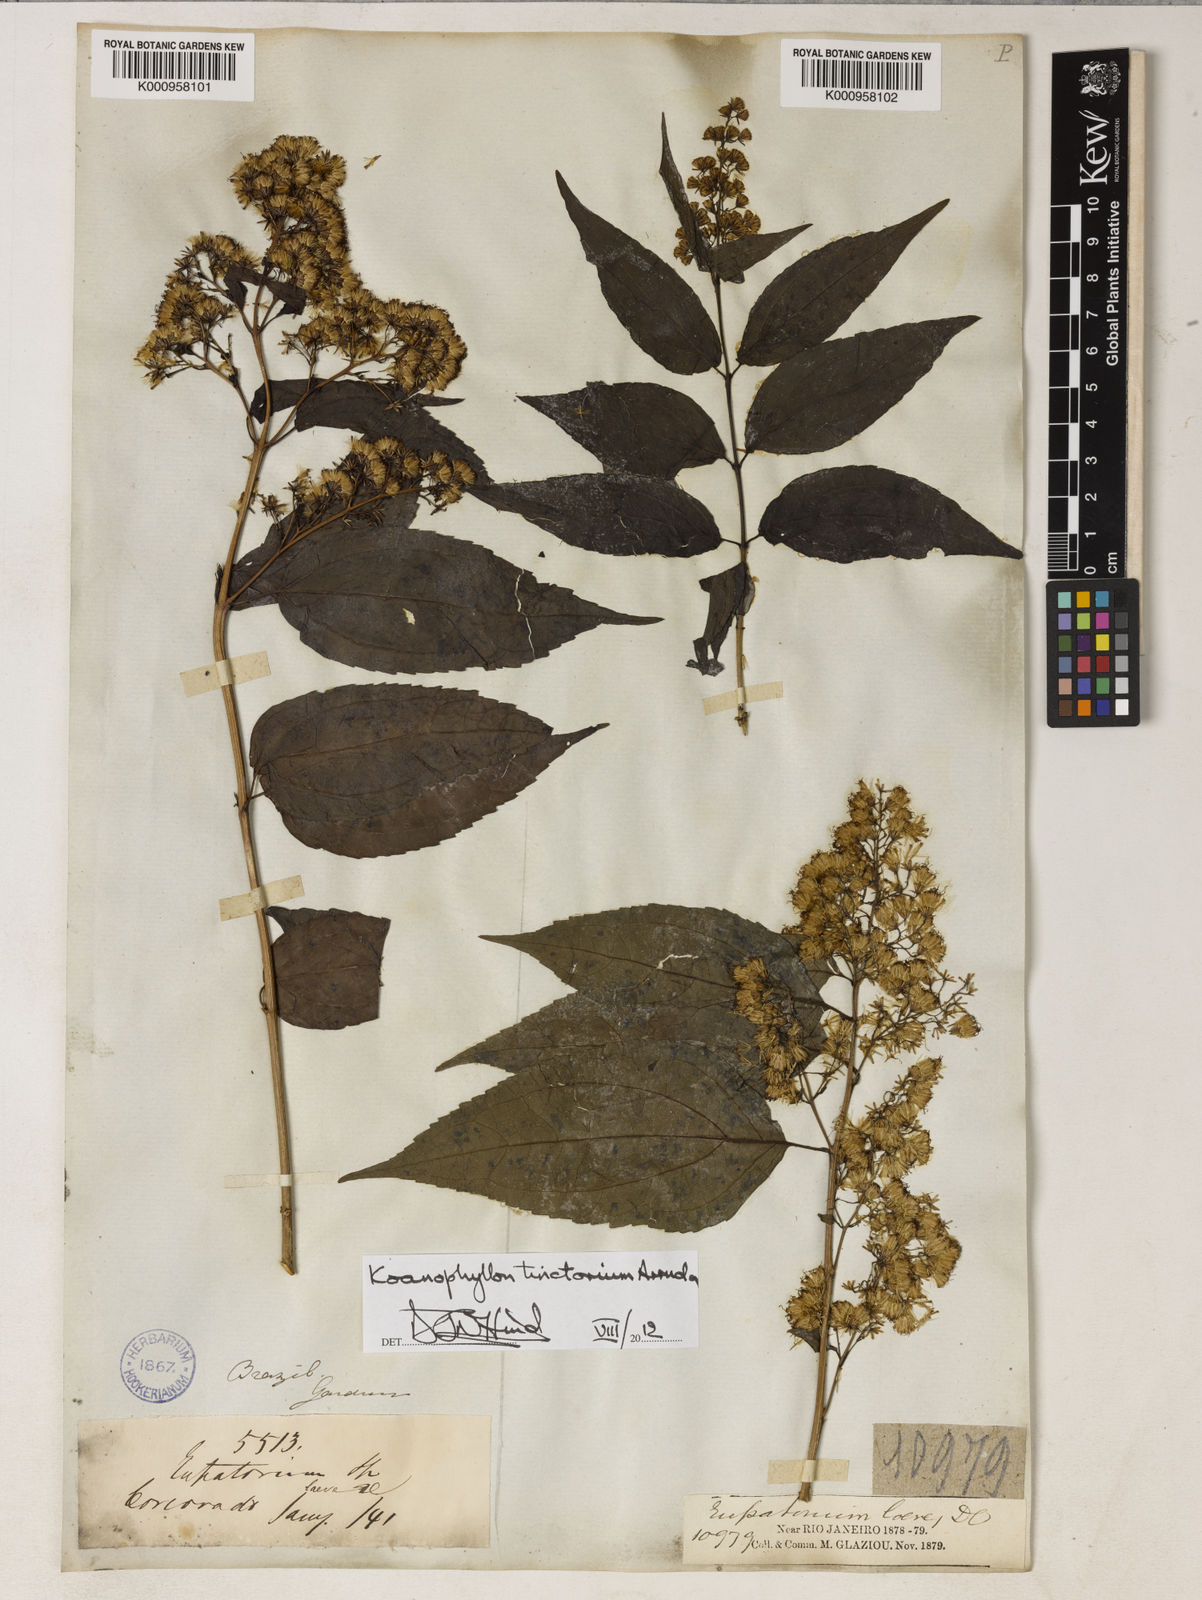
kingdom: Plantae
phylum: Tracheophyta
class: Magnoliopsida
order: Asterales
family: Asteraceae
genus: Koanophyllon
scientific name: Koanophyllon tinctorium
